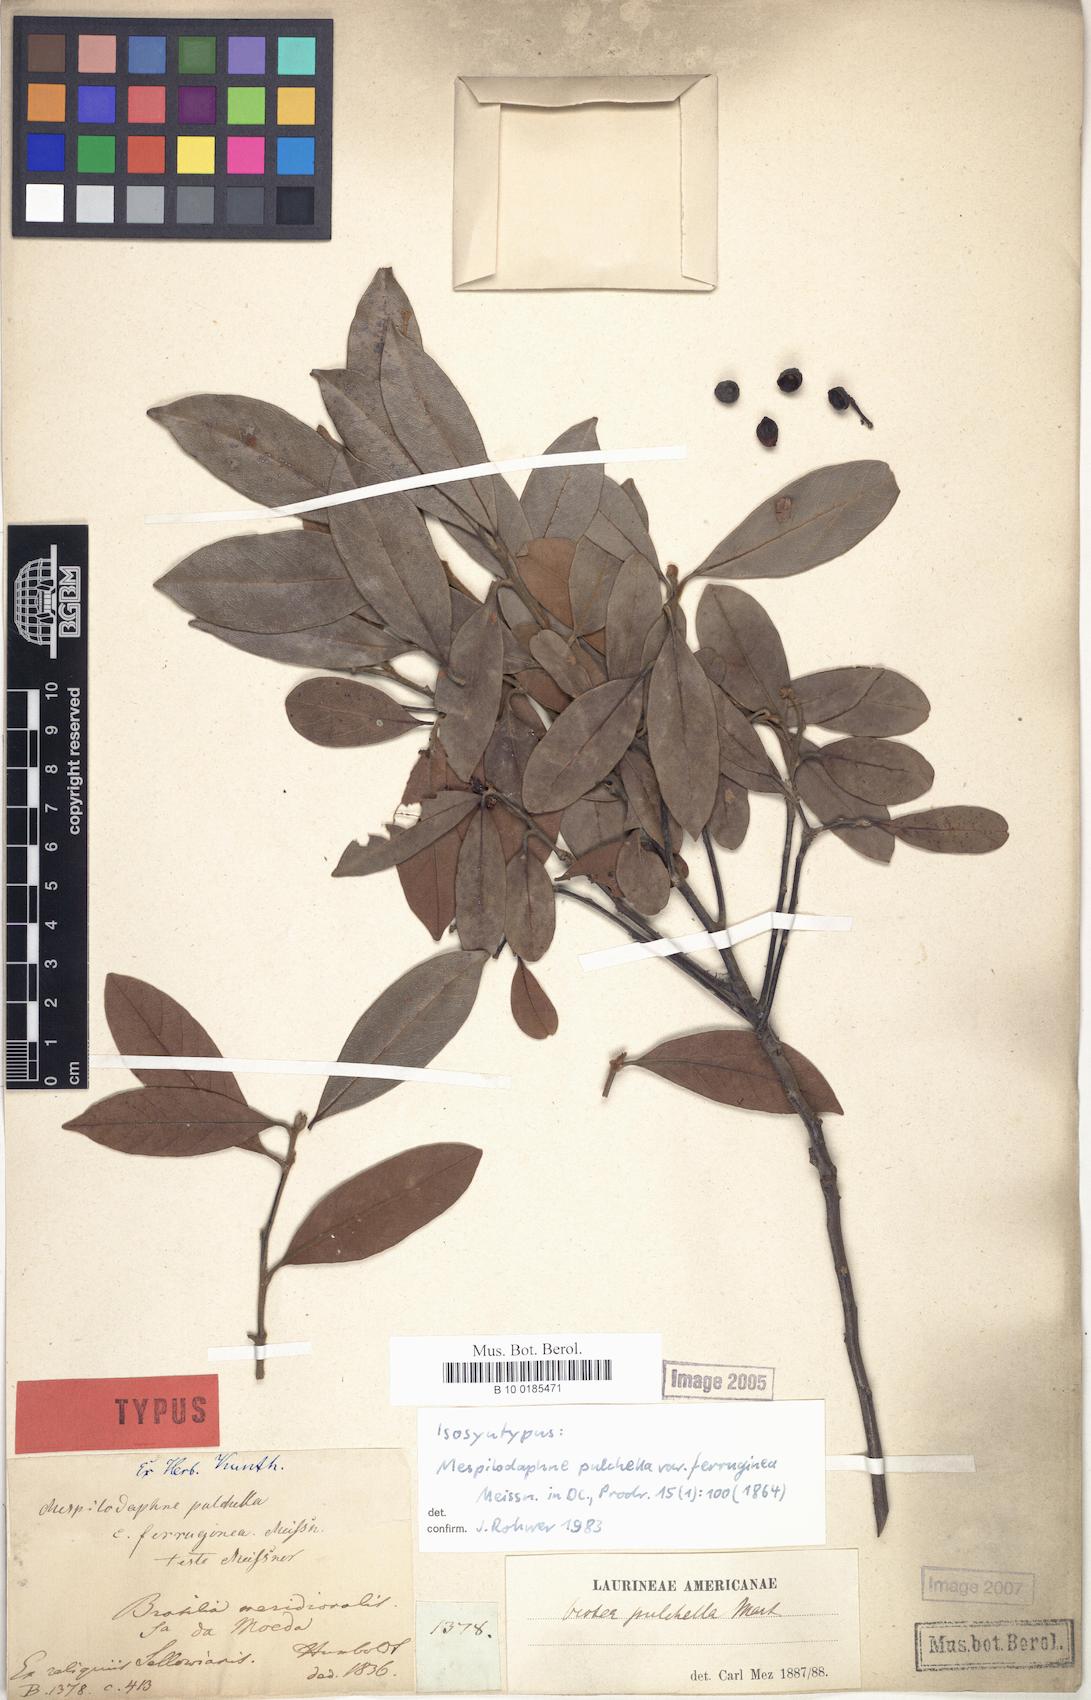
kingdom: Plantae
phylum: Tracheophyta
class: Magnoliopsida
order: Laurales
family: Lauraceae
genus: Mespilodaphne
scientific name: Mespilodaphne pulchella
